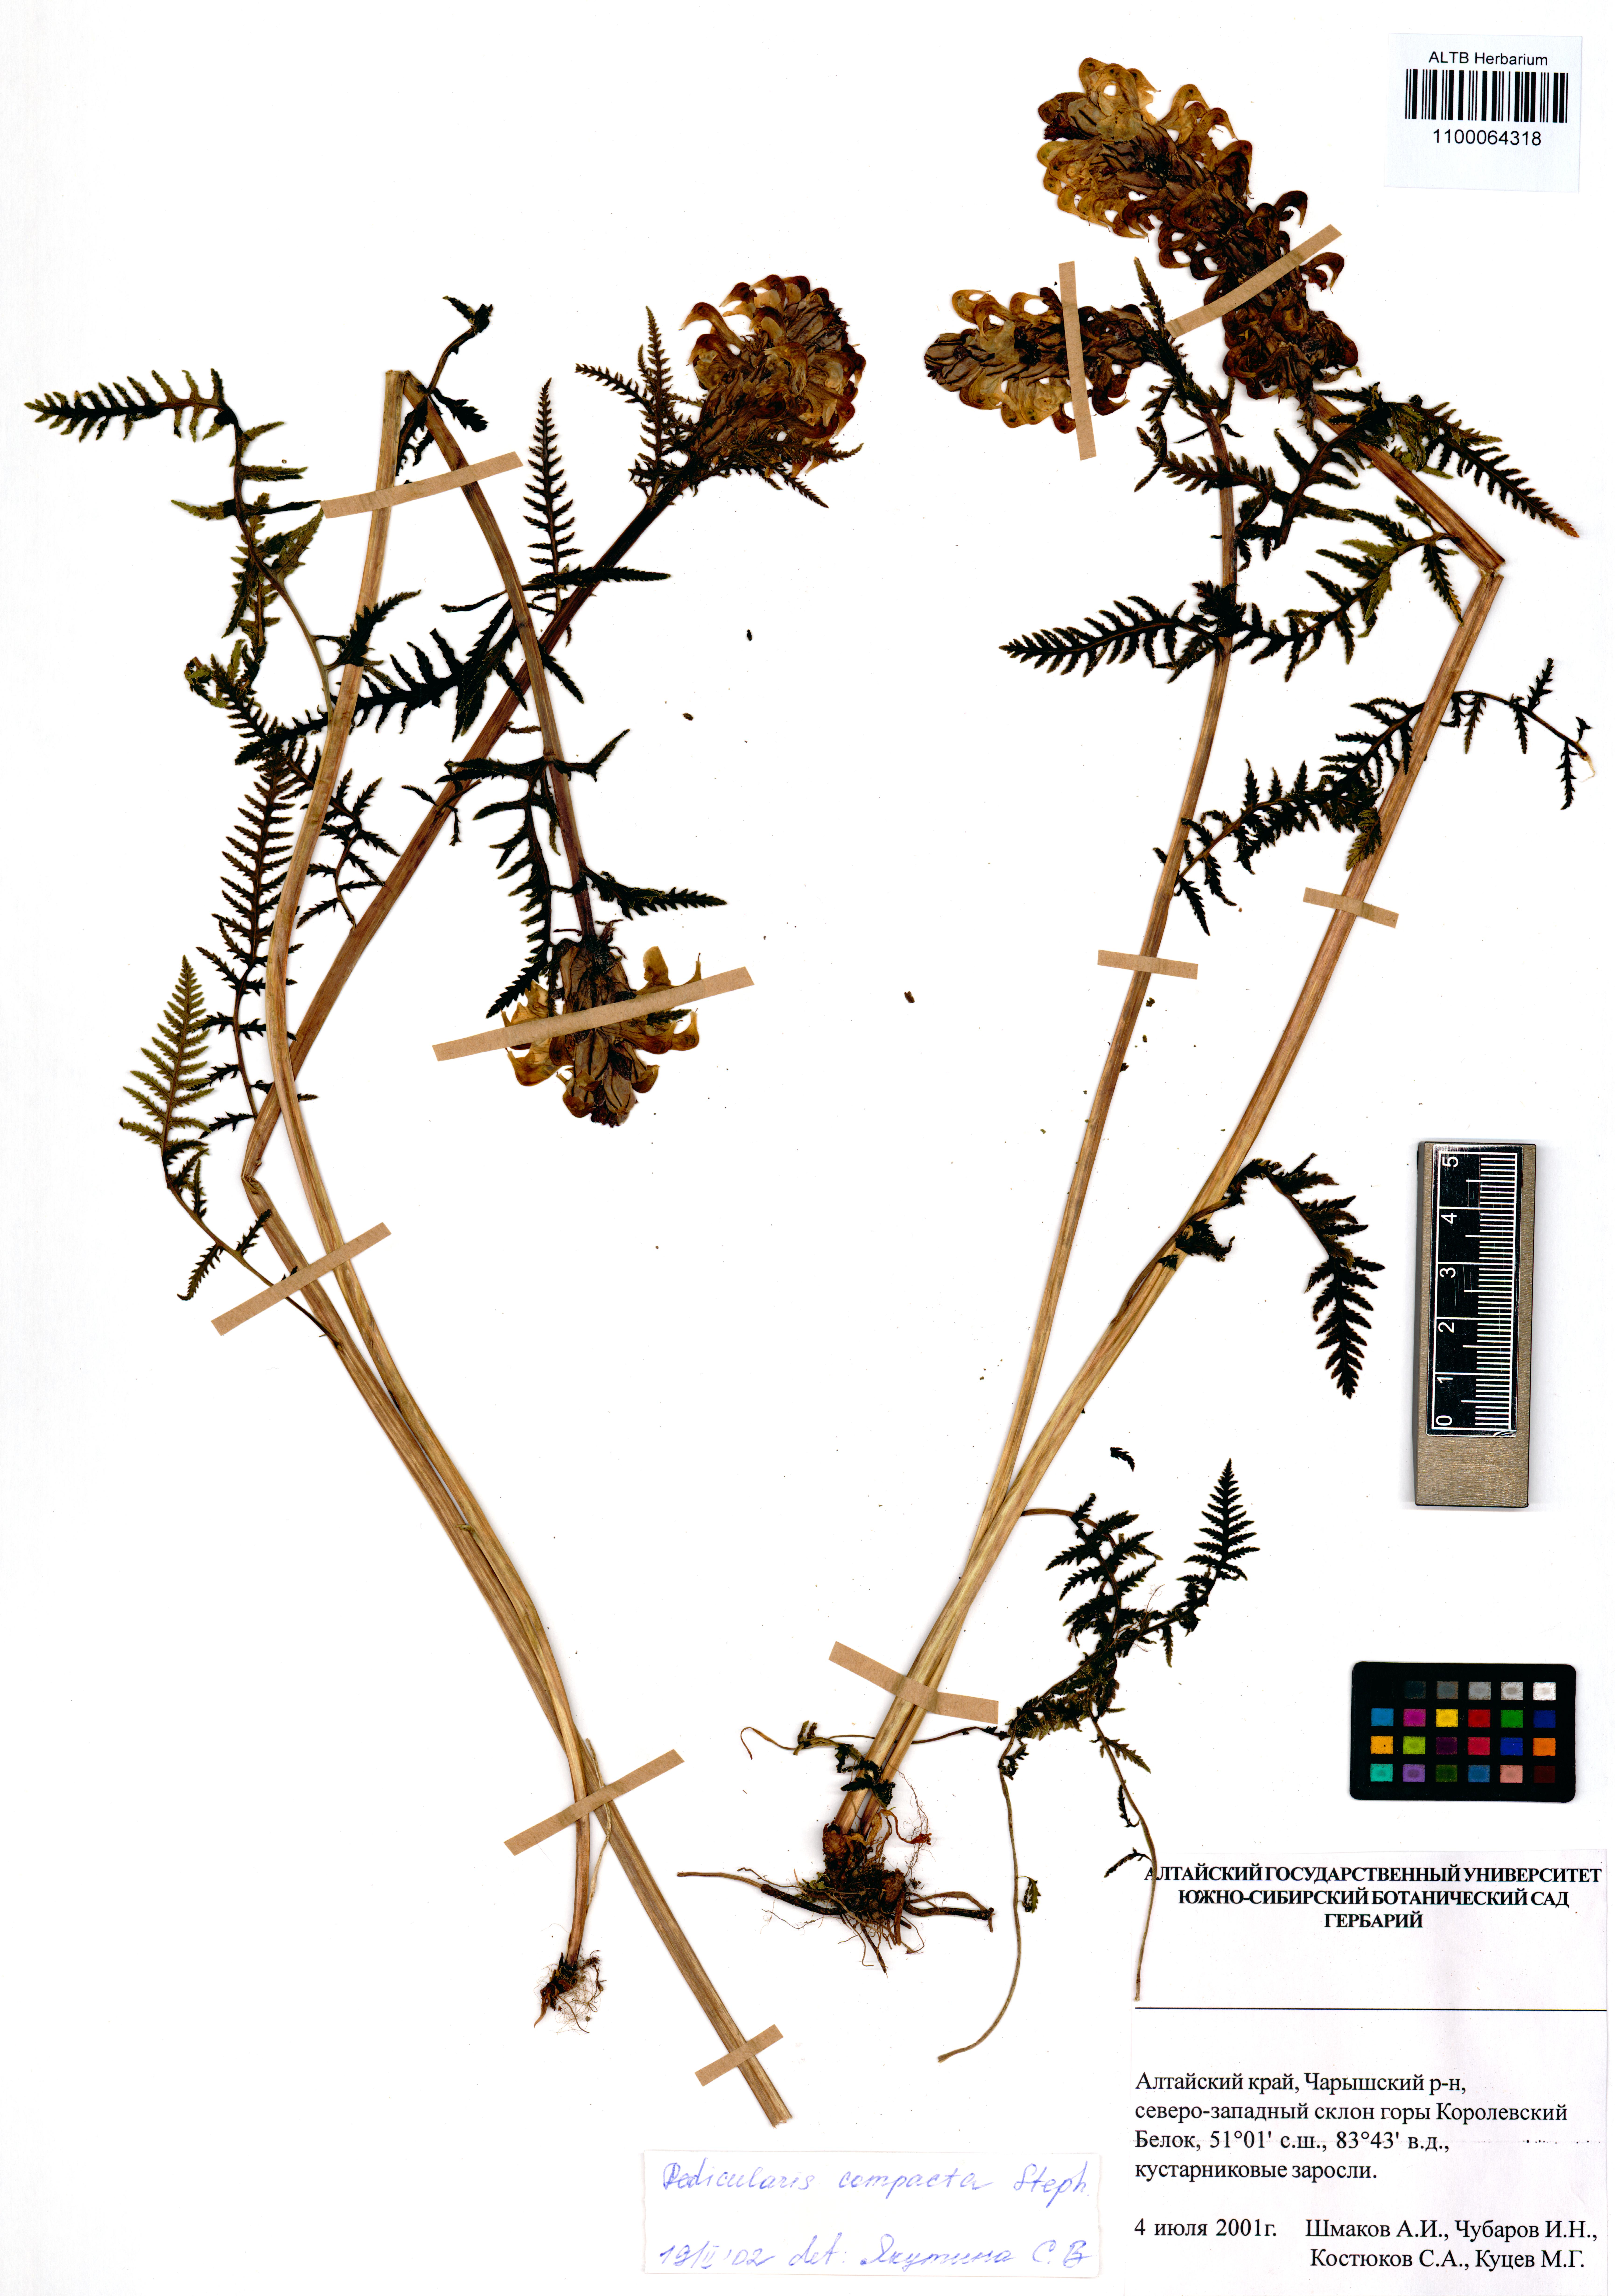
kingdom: Plantae
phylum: Tracheophyta
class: Magnoliopsida
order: Lamiales
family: Orobanchaceae
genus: Pedicularis
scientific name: Pedicularis compacta
